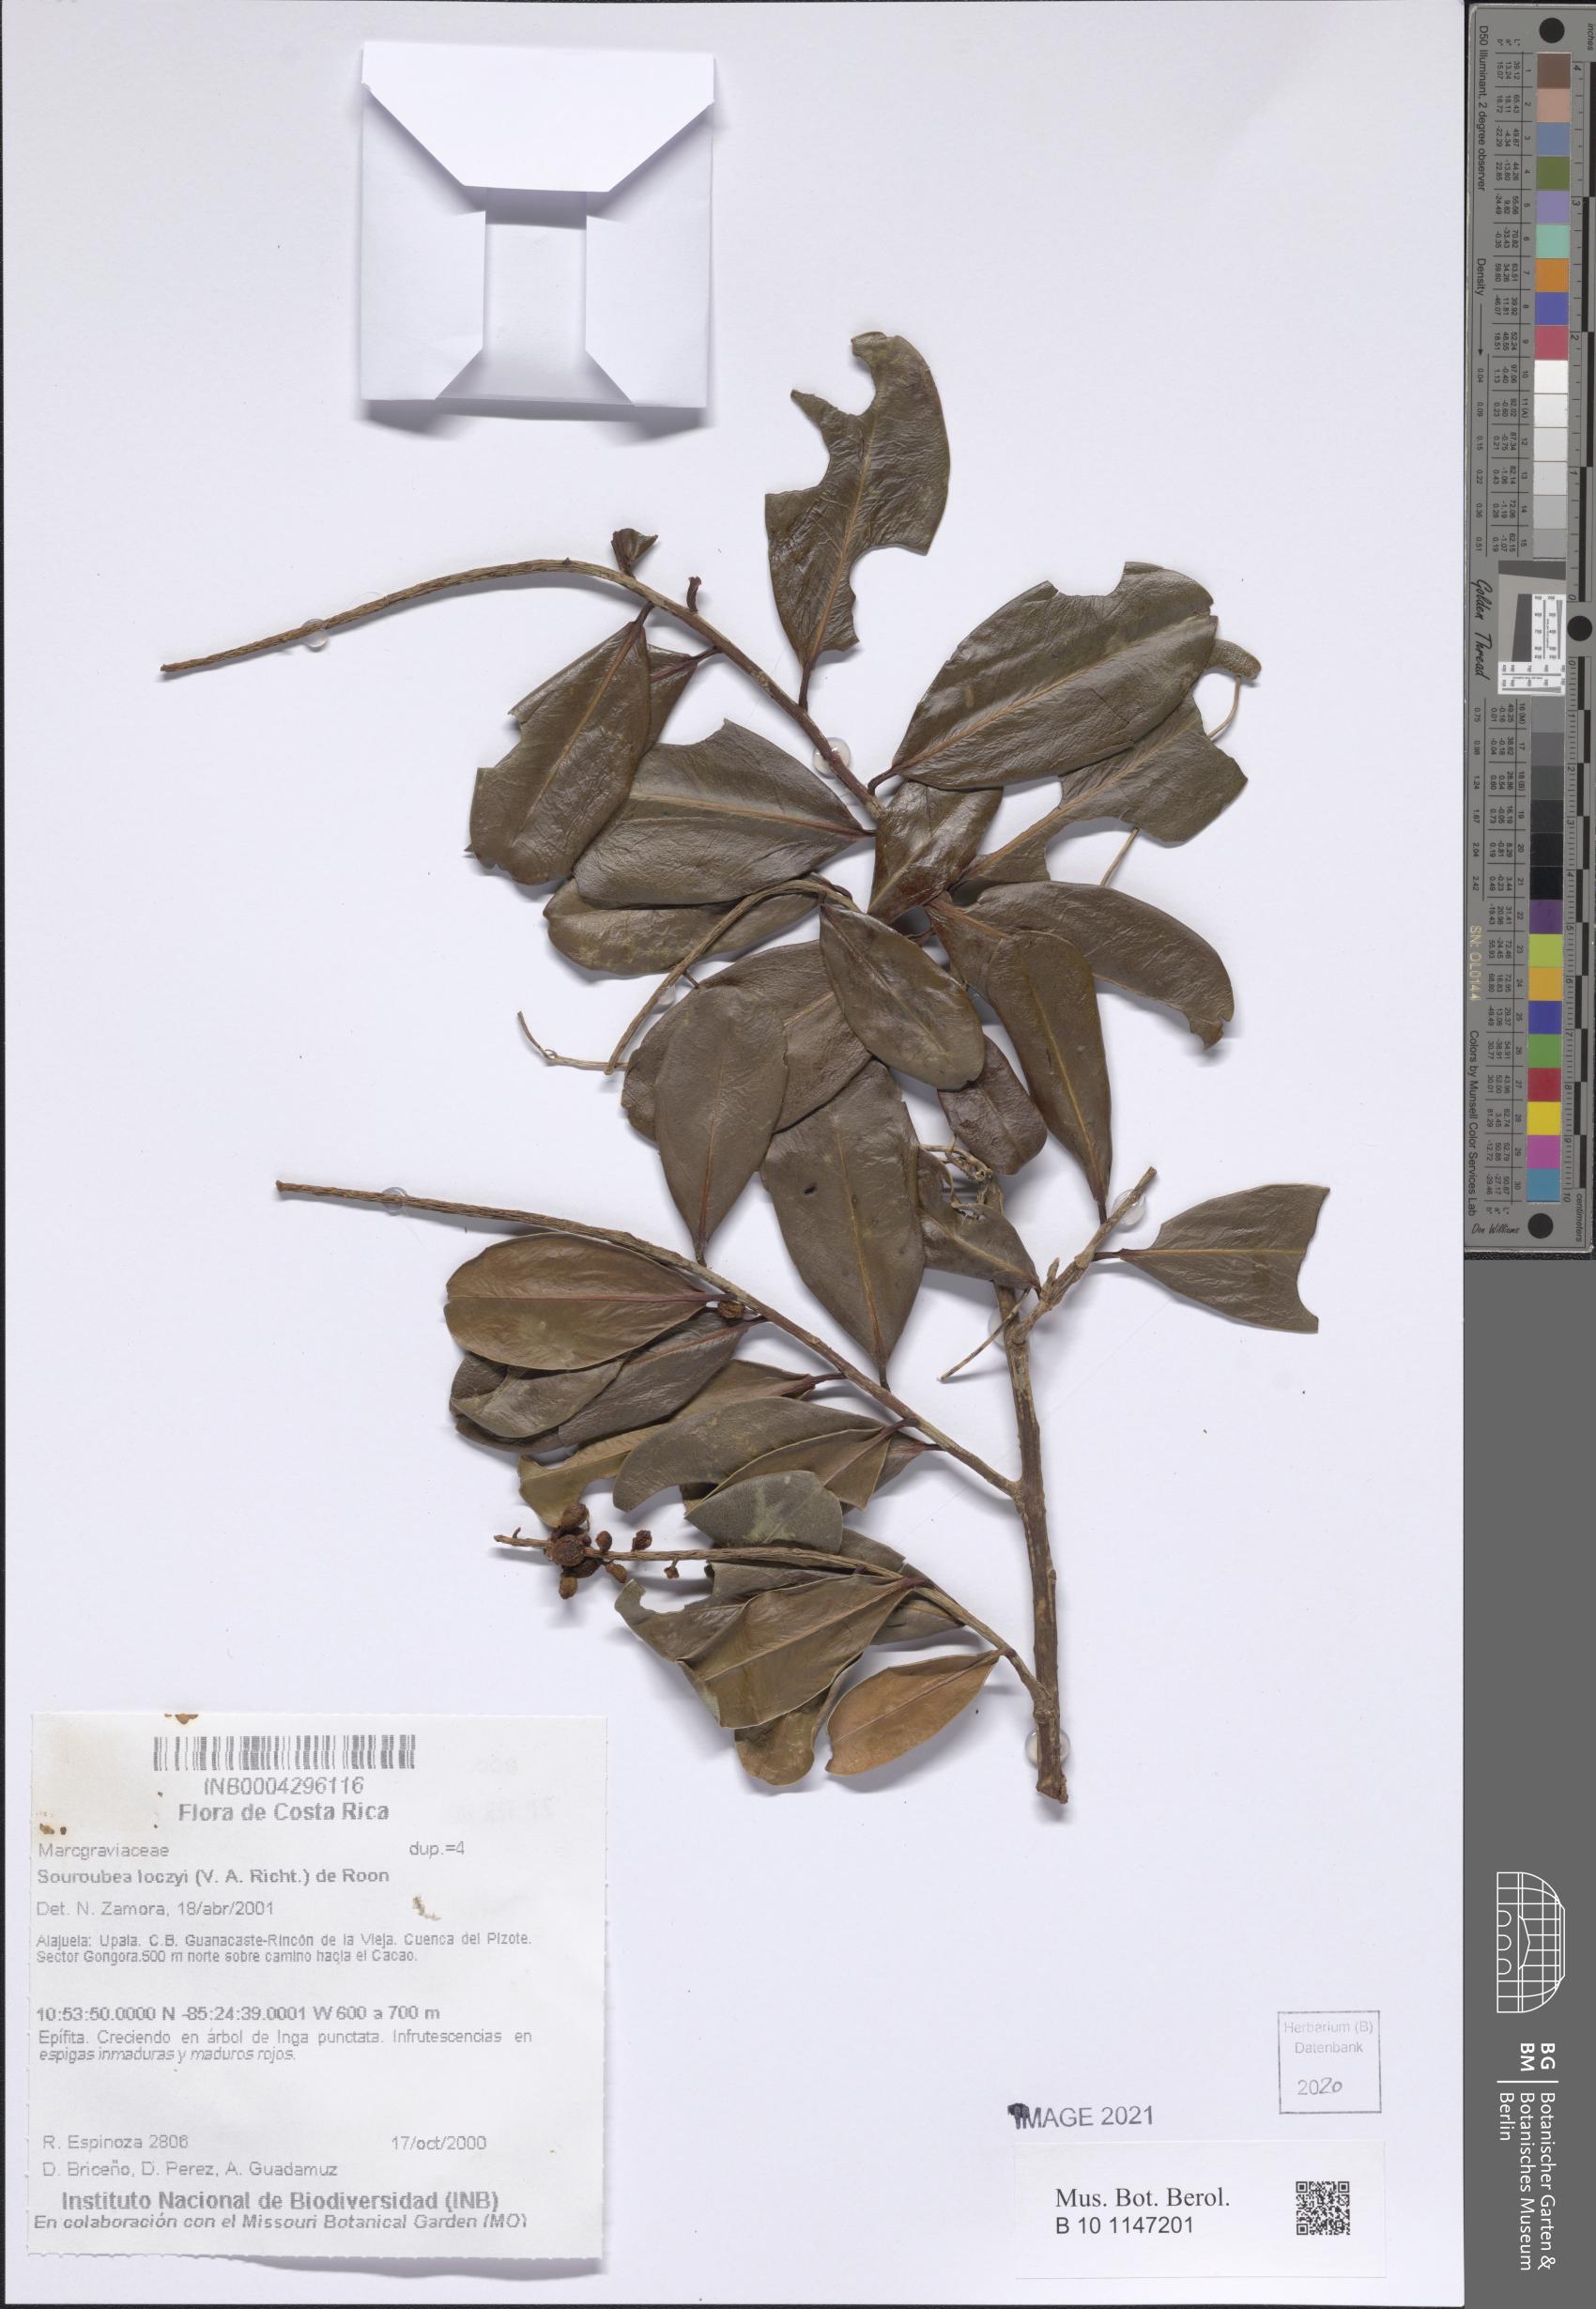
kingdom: Plantae
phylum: Tracheophyta
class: Magnoliopsida
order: Ericales
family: Marcgraviaceae
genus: Souroubea
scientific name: Souroubea loczyi
